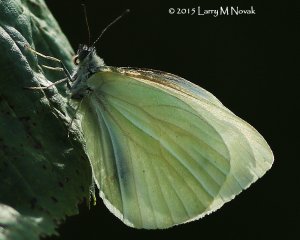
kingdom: Animalia
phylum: Arthropoda
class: Insecta
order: Lepidoptera
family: Pieridae
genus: Pieris
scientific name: Pieris oleracea
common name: Mustard White
